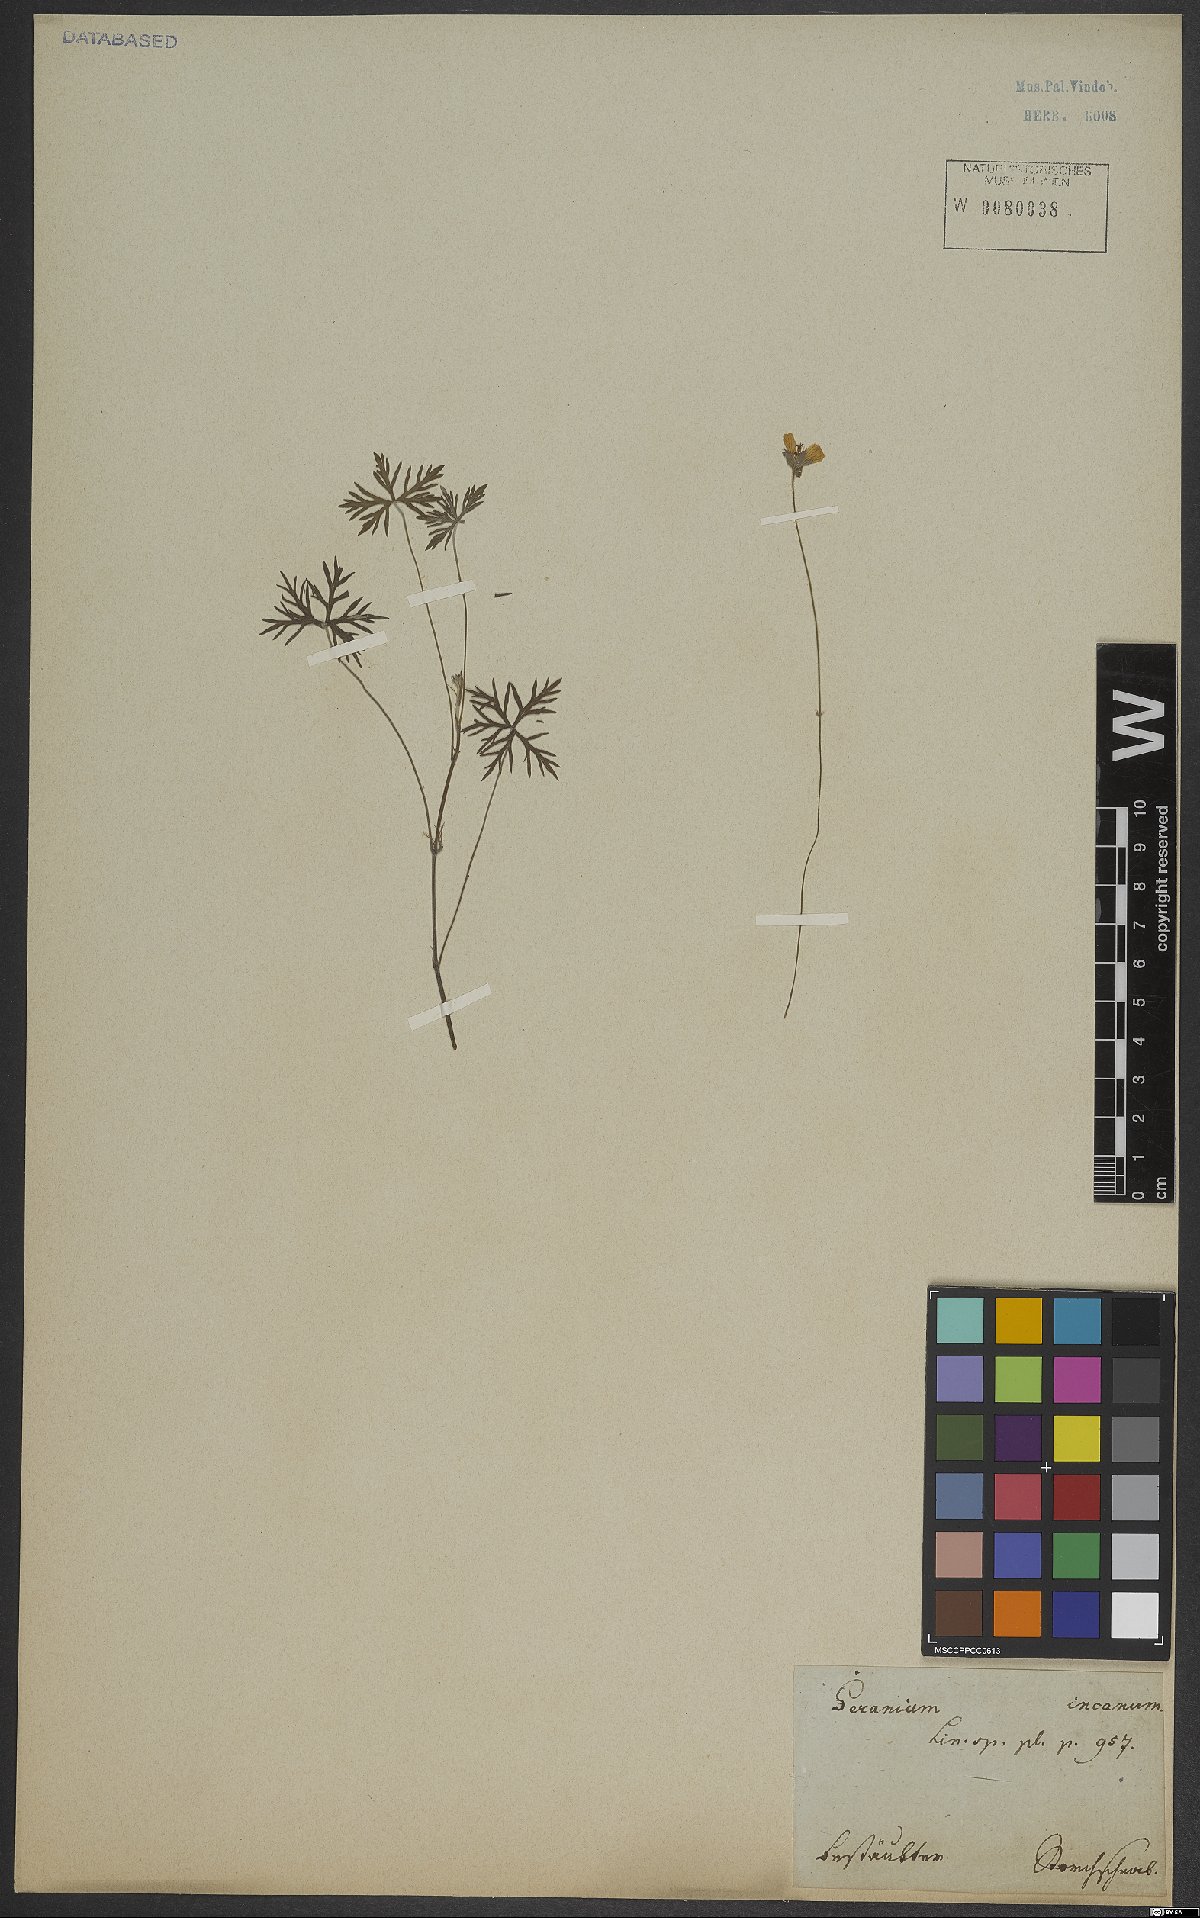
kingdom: Plantae
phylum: Tracheophyta
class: Magnoliopsida
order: Geraniales
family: Geraniaceae
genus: Geranium
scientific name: Geranium incanum
